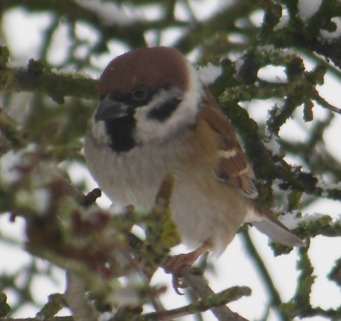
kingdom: Animalia
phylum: Chordata
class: Aves
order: Passeriformes
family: Passeridae
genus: Passer
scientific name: Passer montanus
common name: Skovspurv
